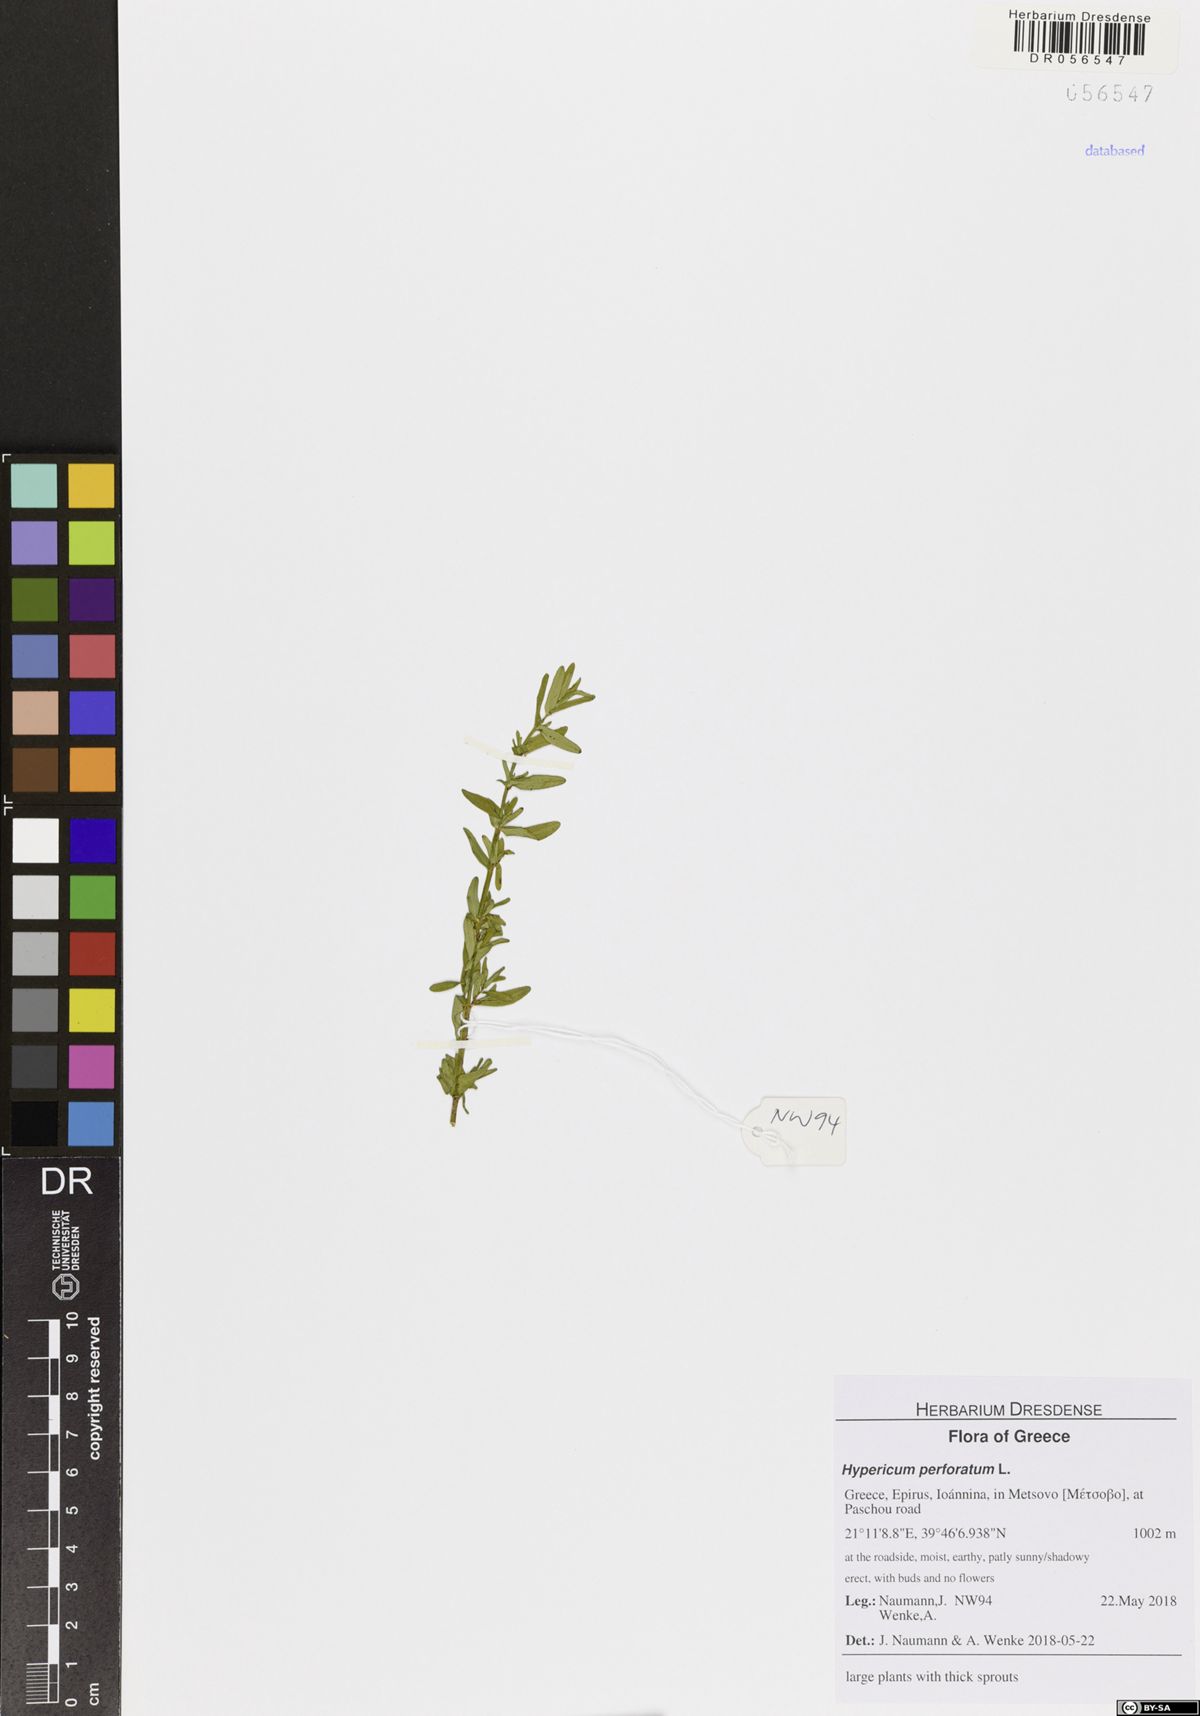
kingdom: Plantae
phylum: Tracheophyta
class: Magnoliopsida
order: Malpighiales
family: Hypericaceae
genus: Hypericum
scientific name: Hypericum perforatum
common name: Common st. johnswort
